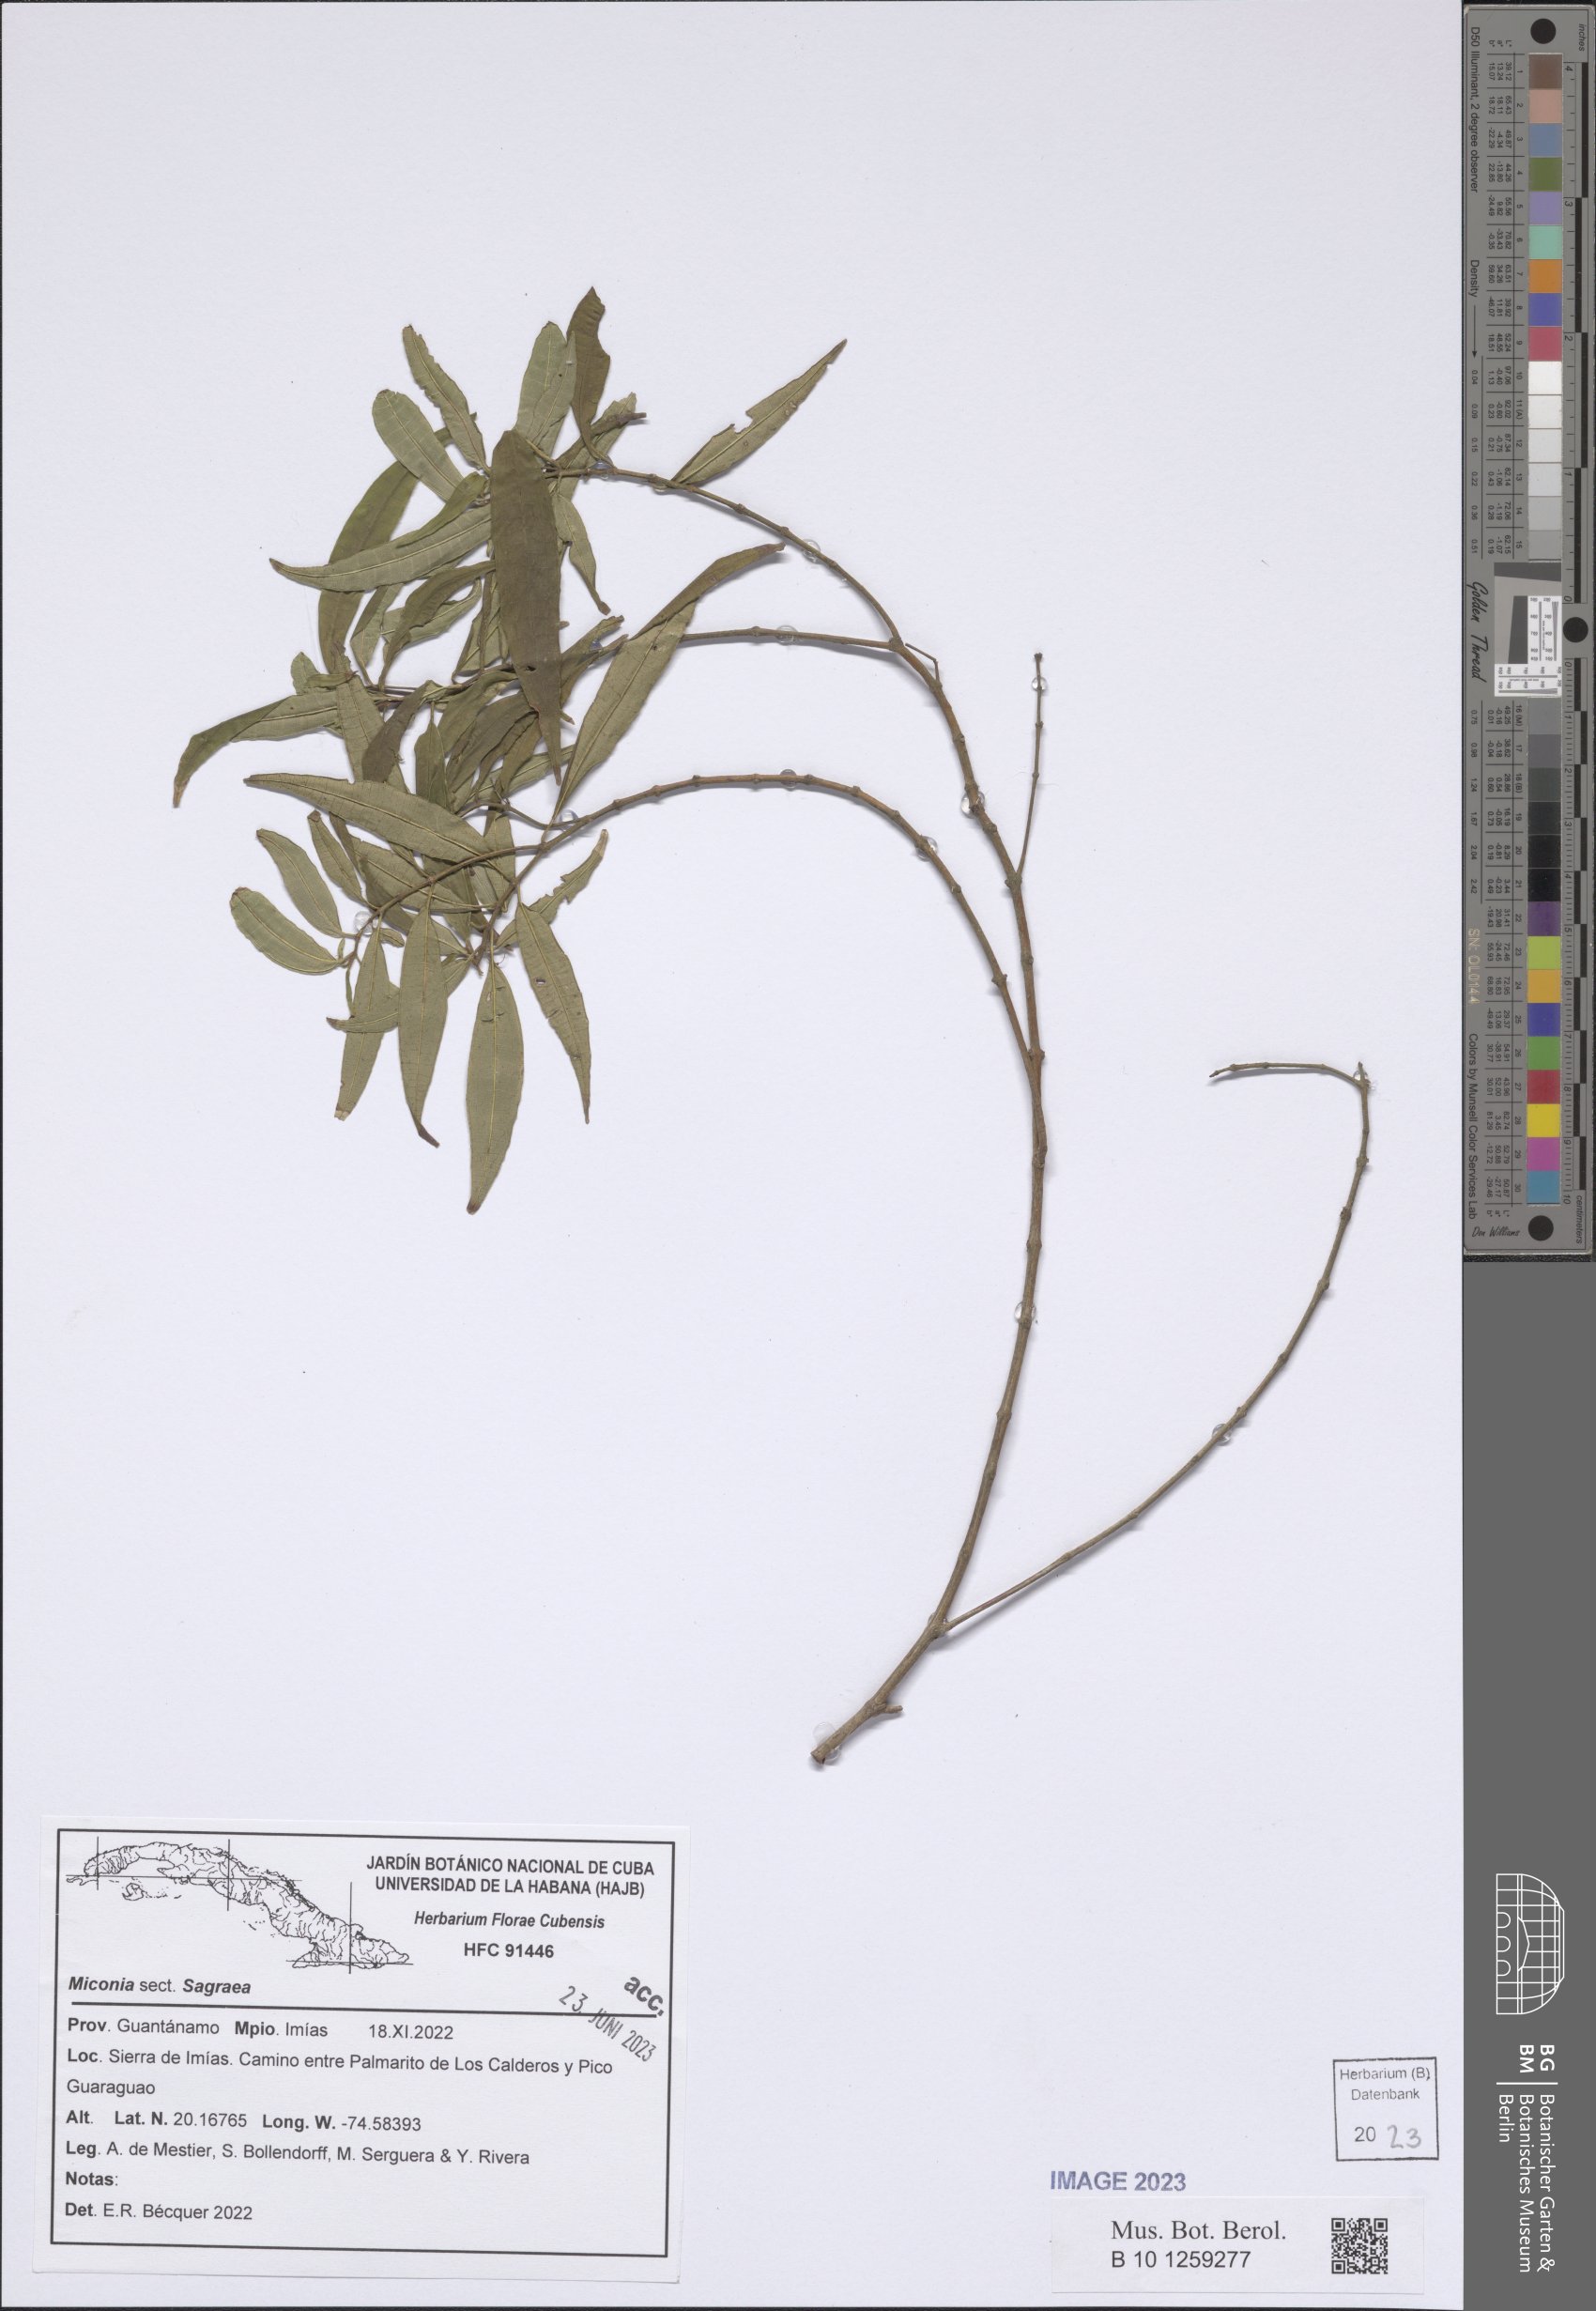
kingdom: Plantae
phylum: Tracheophyta
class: Magnoliopsida
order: Myrtales
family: Melastomataceae
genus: Miconia
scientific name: Miconia
